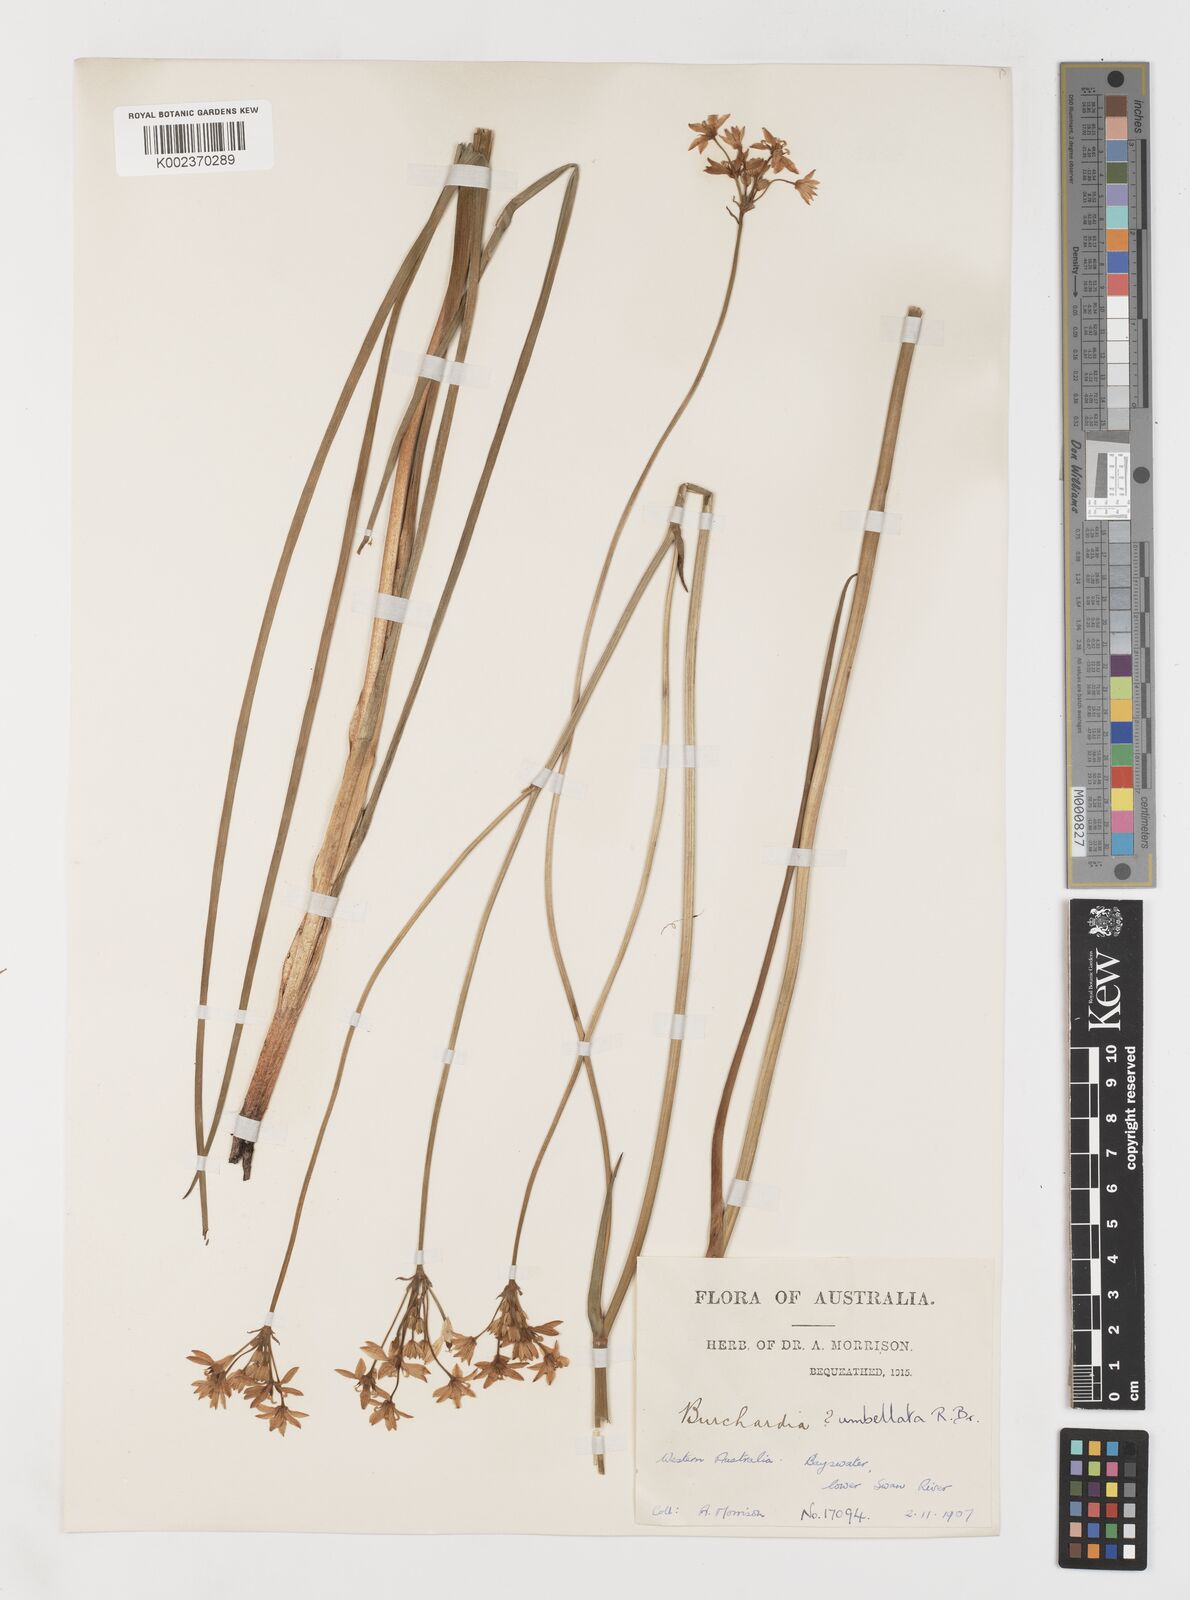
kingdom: Plantae
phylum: Tracheophyta
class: Liliopsida
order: Liliales
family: Colchicaceae
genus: Burchardia
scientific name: Burchardia umbellata
